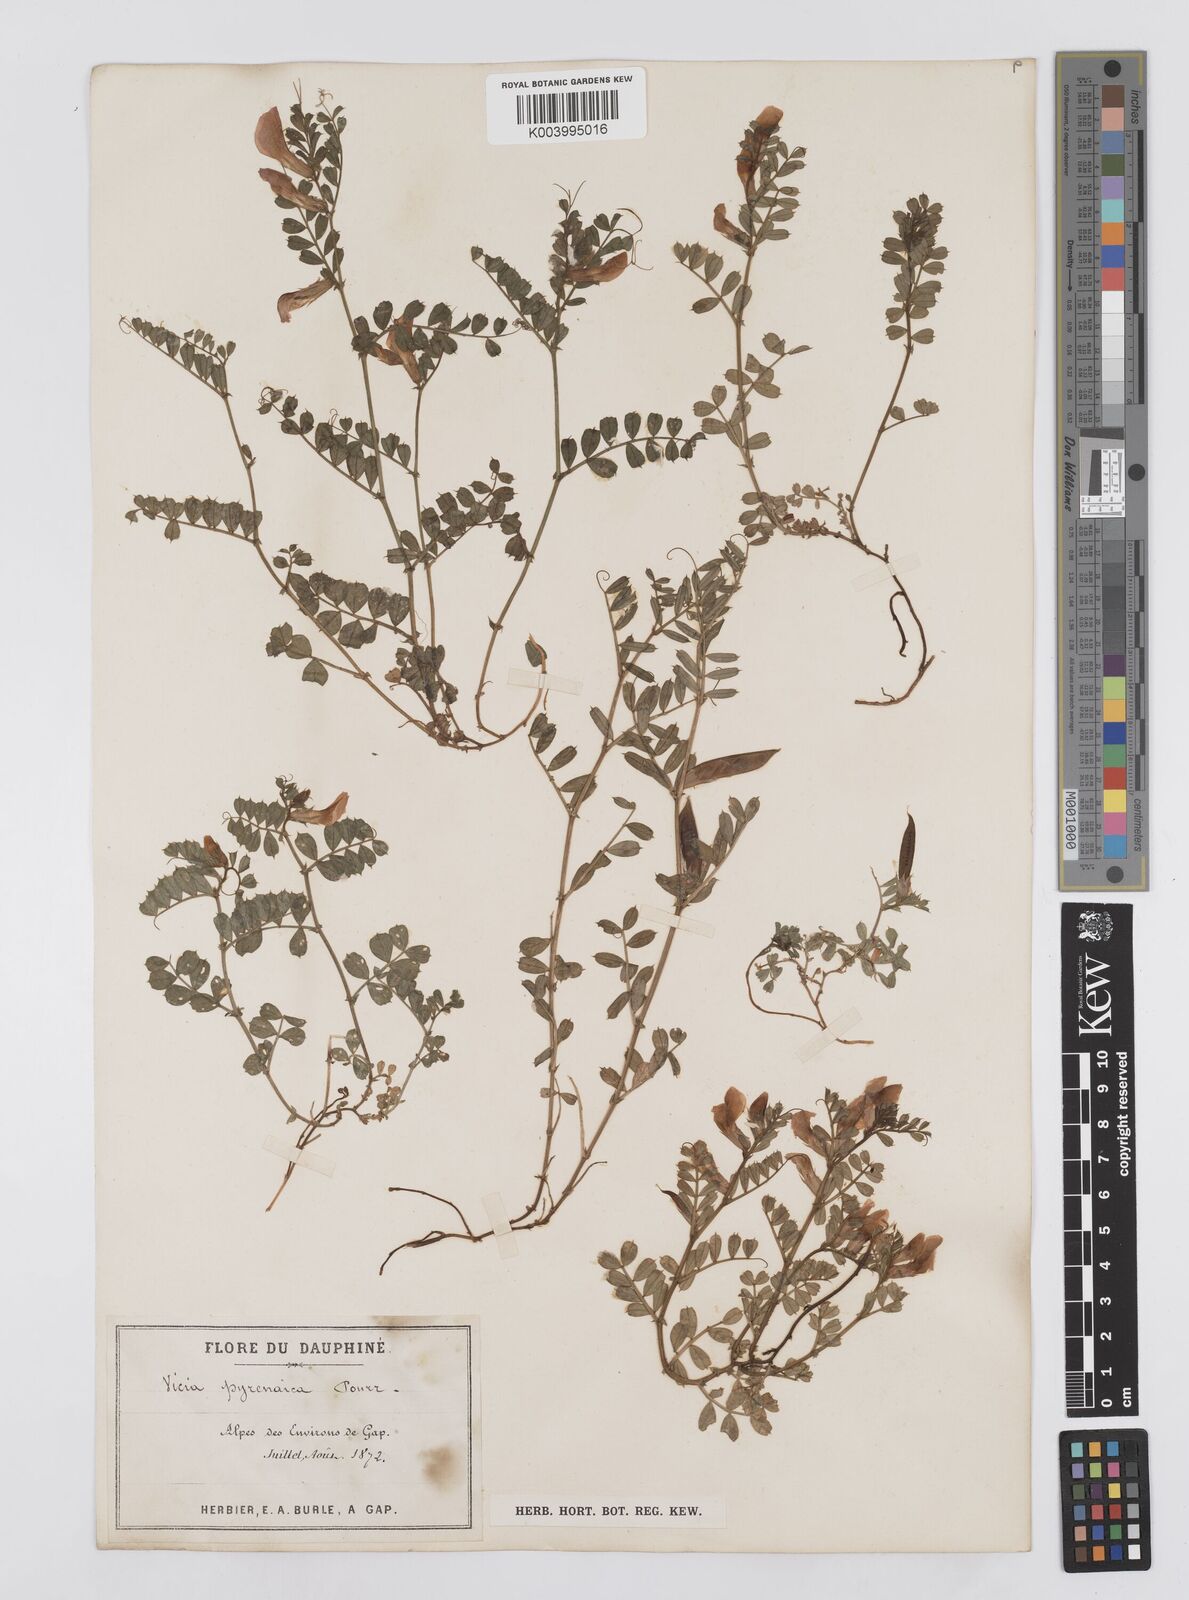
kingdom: Plantae
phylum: Tracheophyta
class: Magnoliopsida
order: Fabales
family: Fabaceae
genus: Vicia
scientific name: Vicia pyrenaica
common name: Pyrenean vetch
